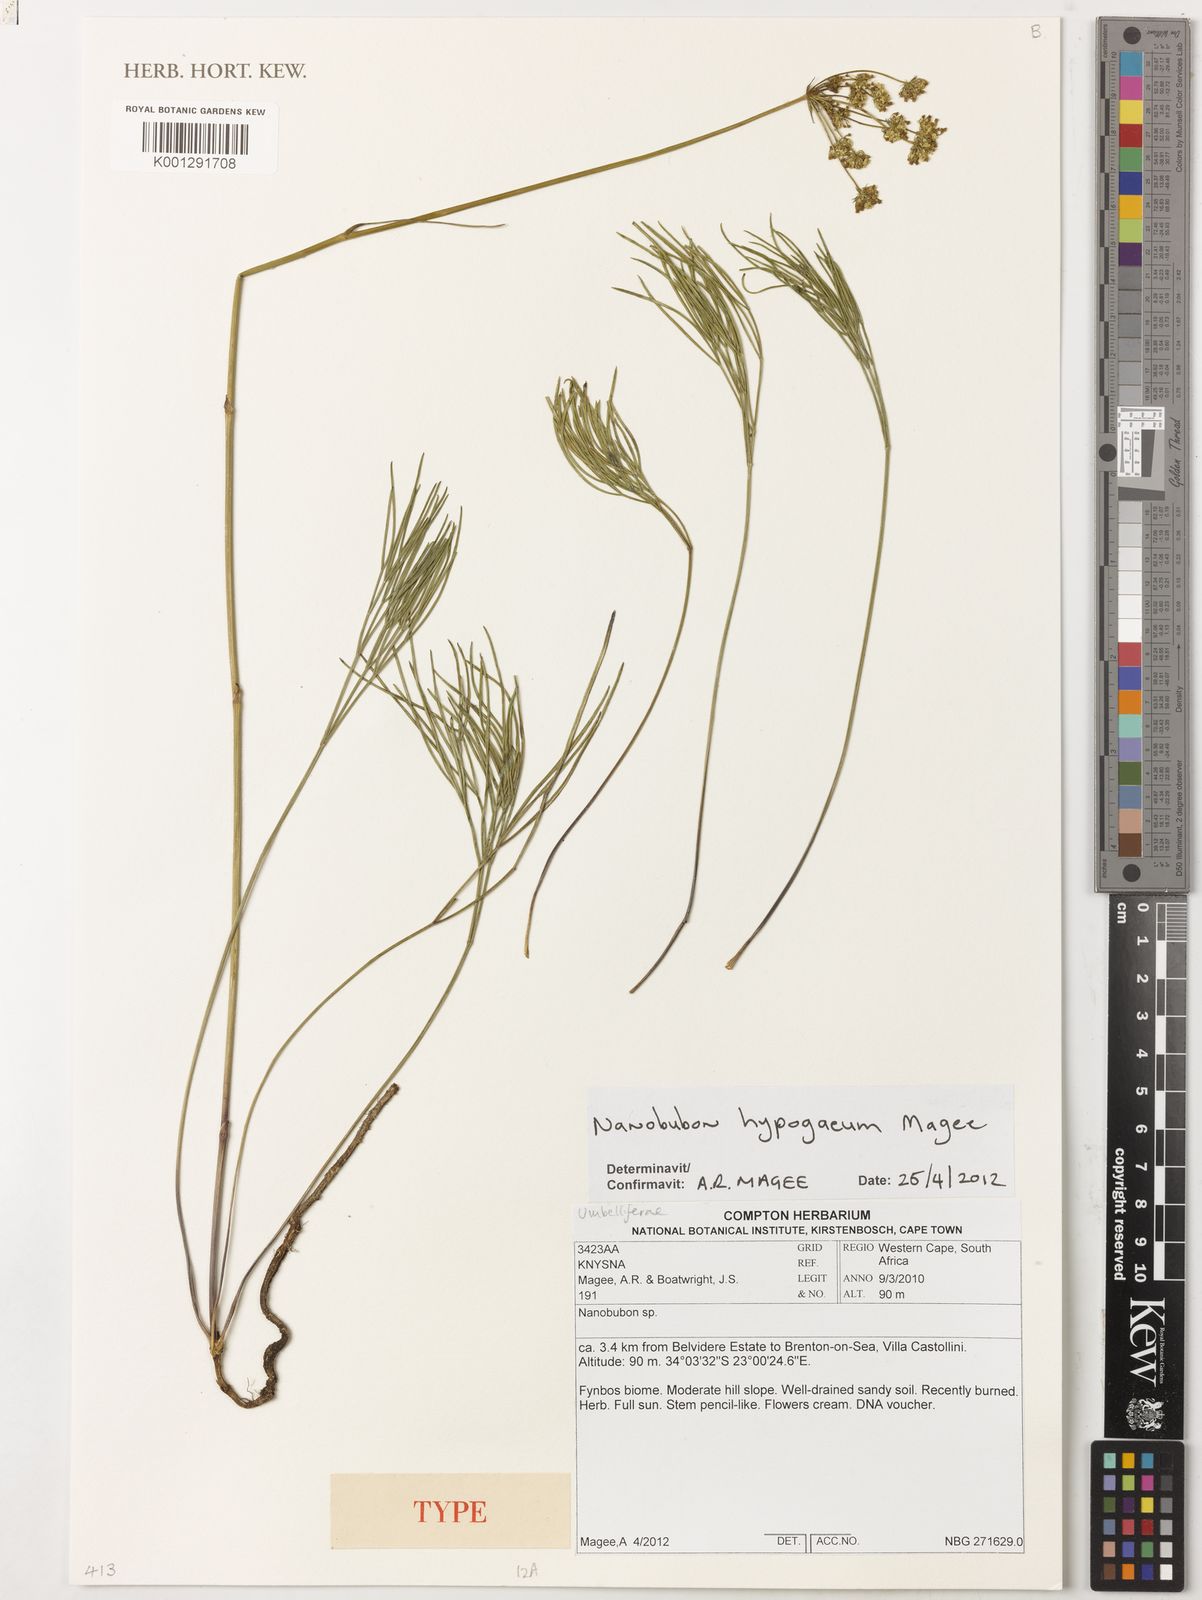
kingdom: Plantae
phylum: Tracheophyta
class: Magnoliopsida
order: Apiales
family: Apiaceae
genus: Nanobubon
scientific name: Nanobubon hypogaeum
